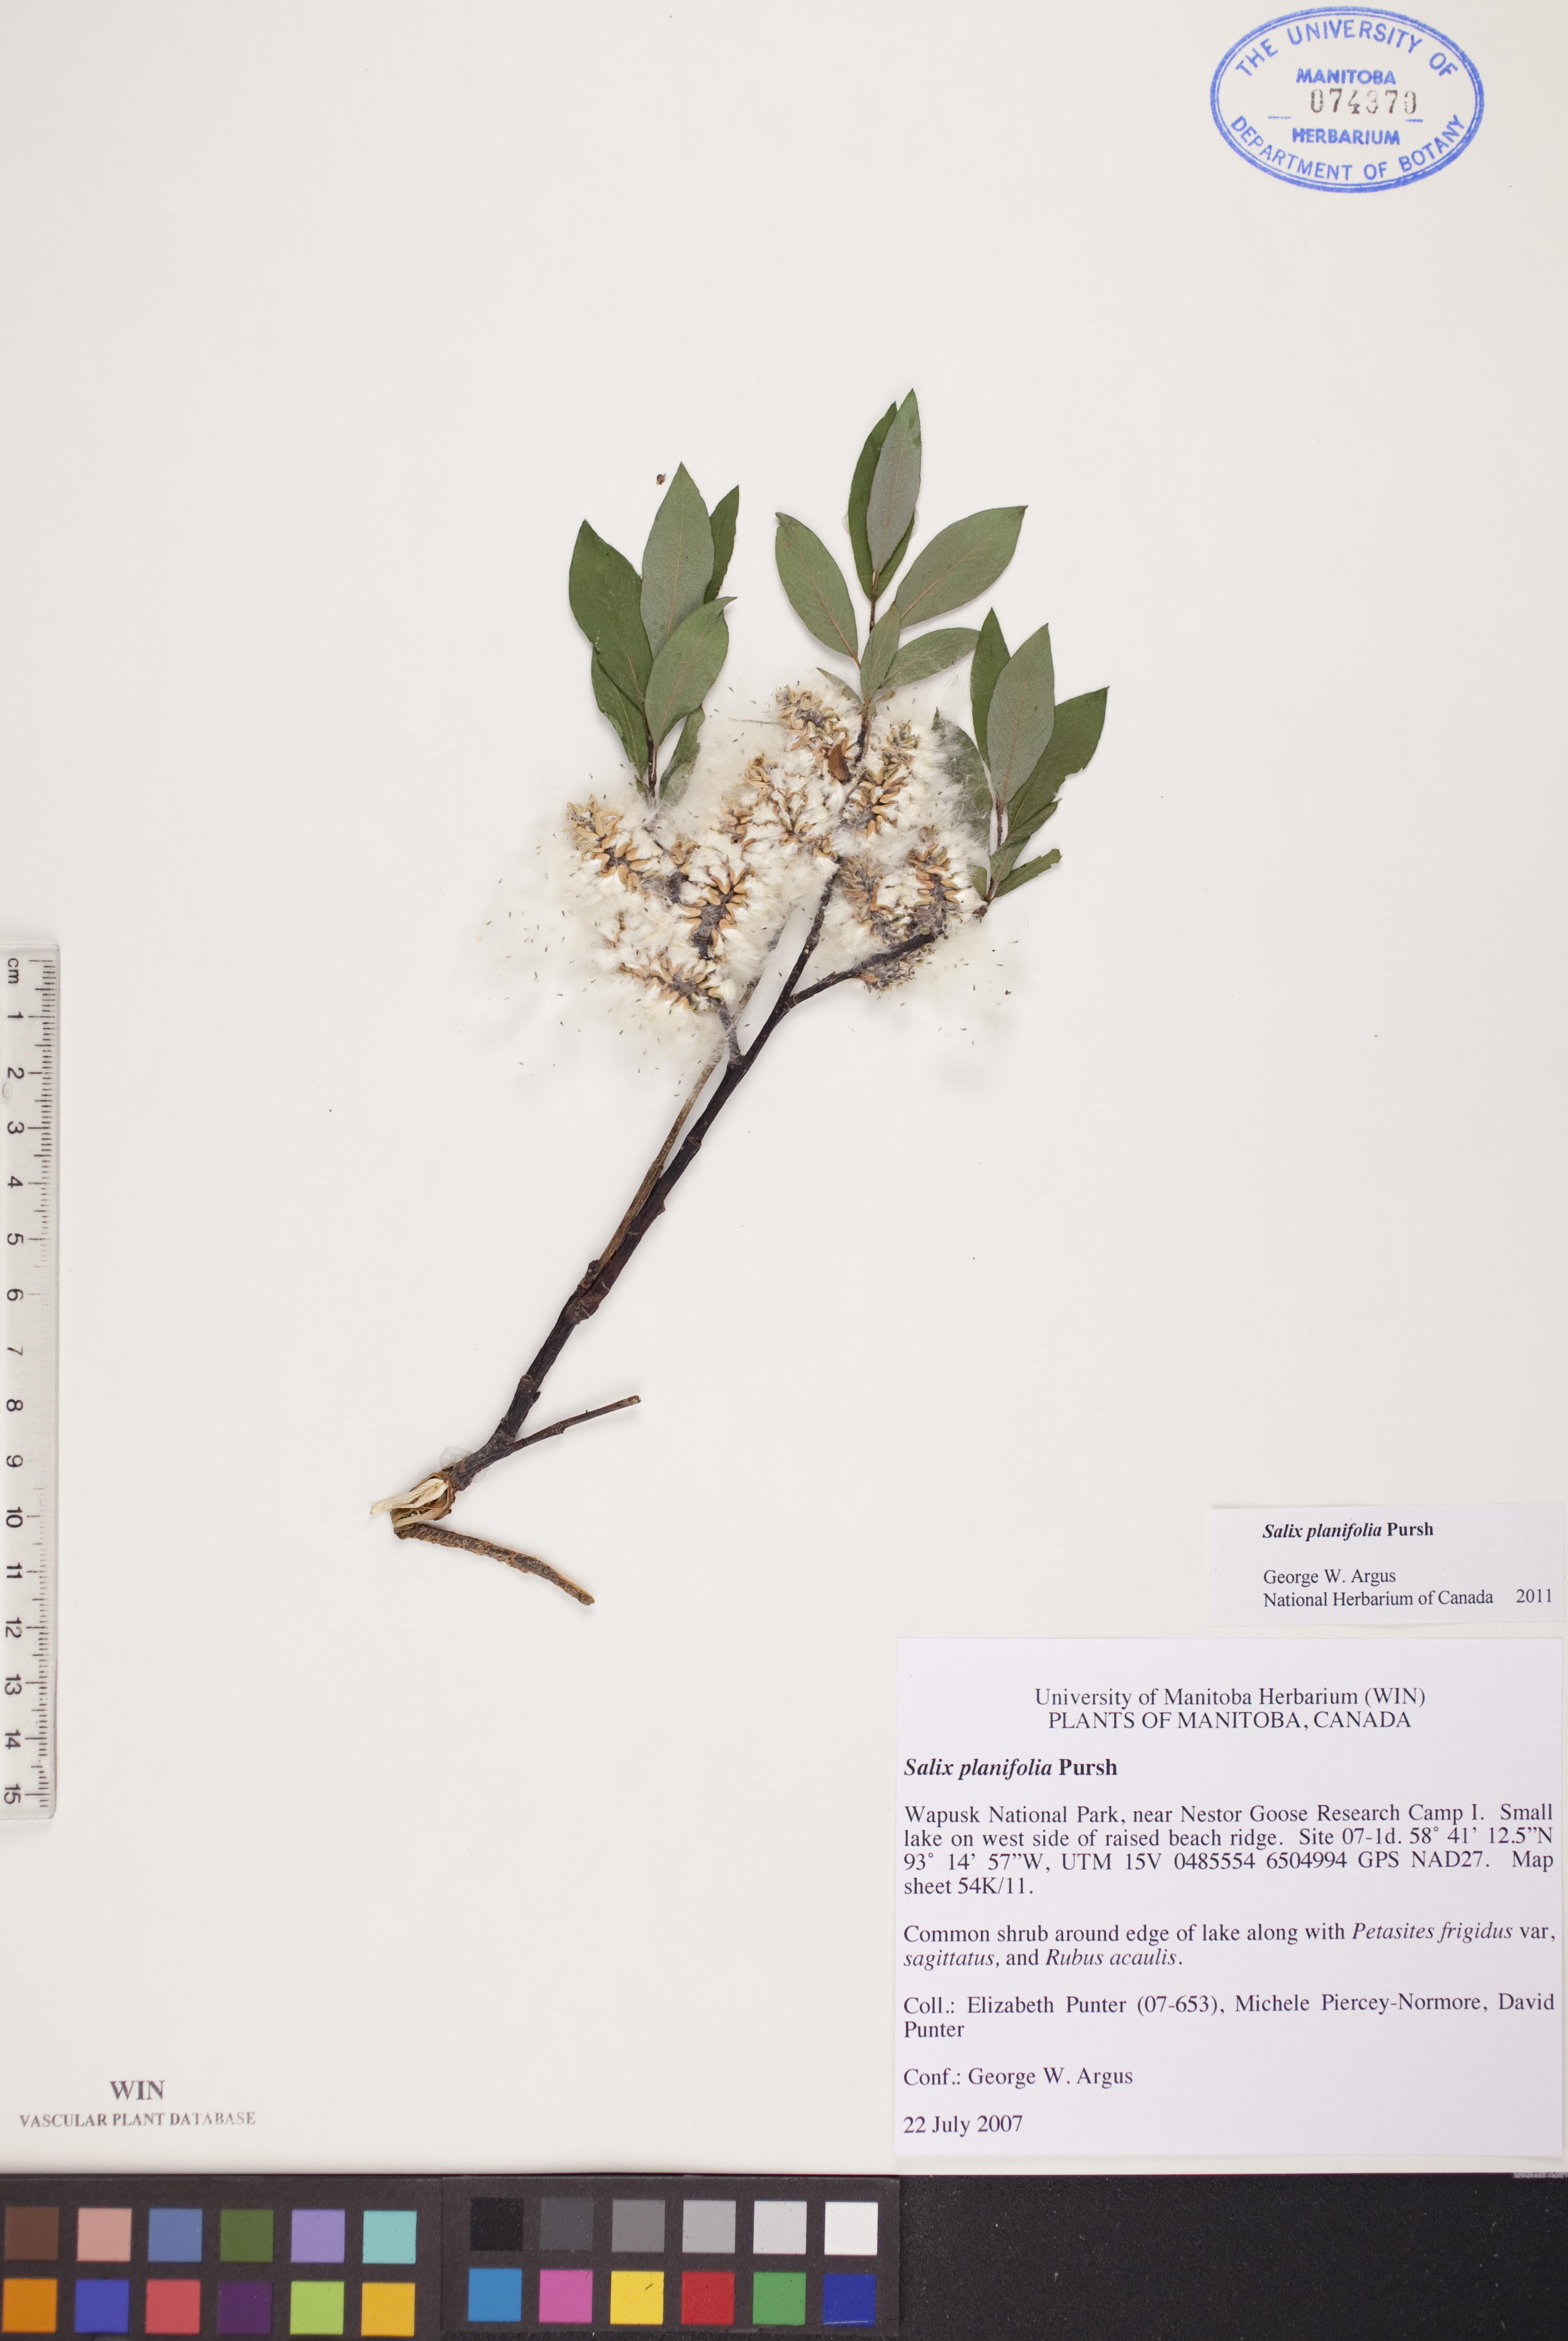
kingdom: Plantae
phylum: Tracheophyta
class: Magnoliopsida
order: Malpighiales
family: Salicaceae
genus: Salix
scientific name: Salix planifolia
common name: Mountain willow
